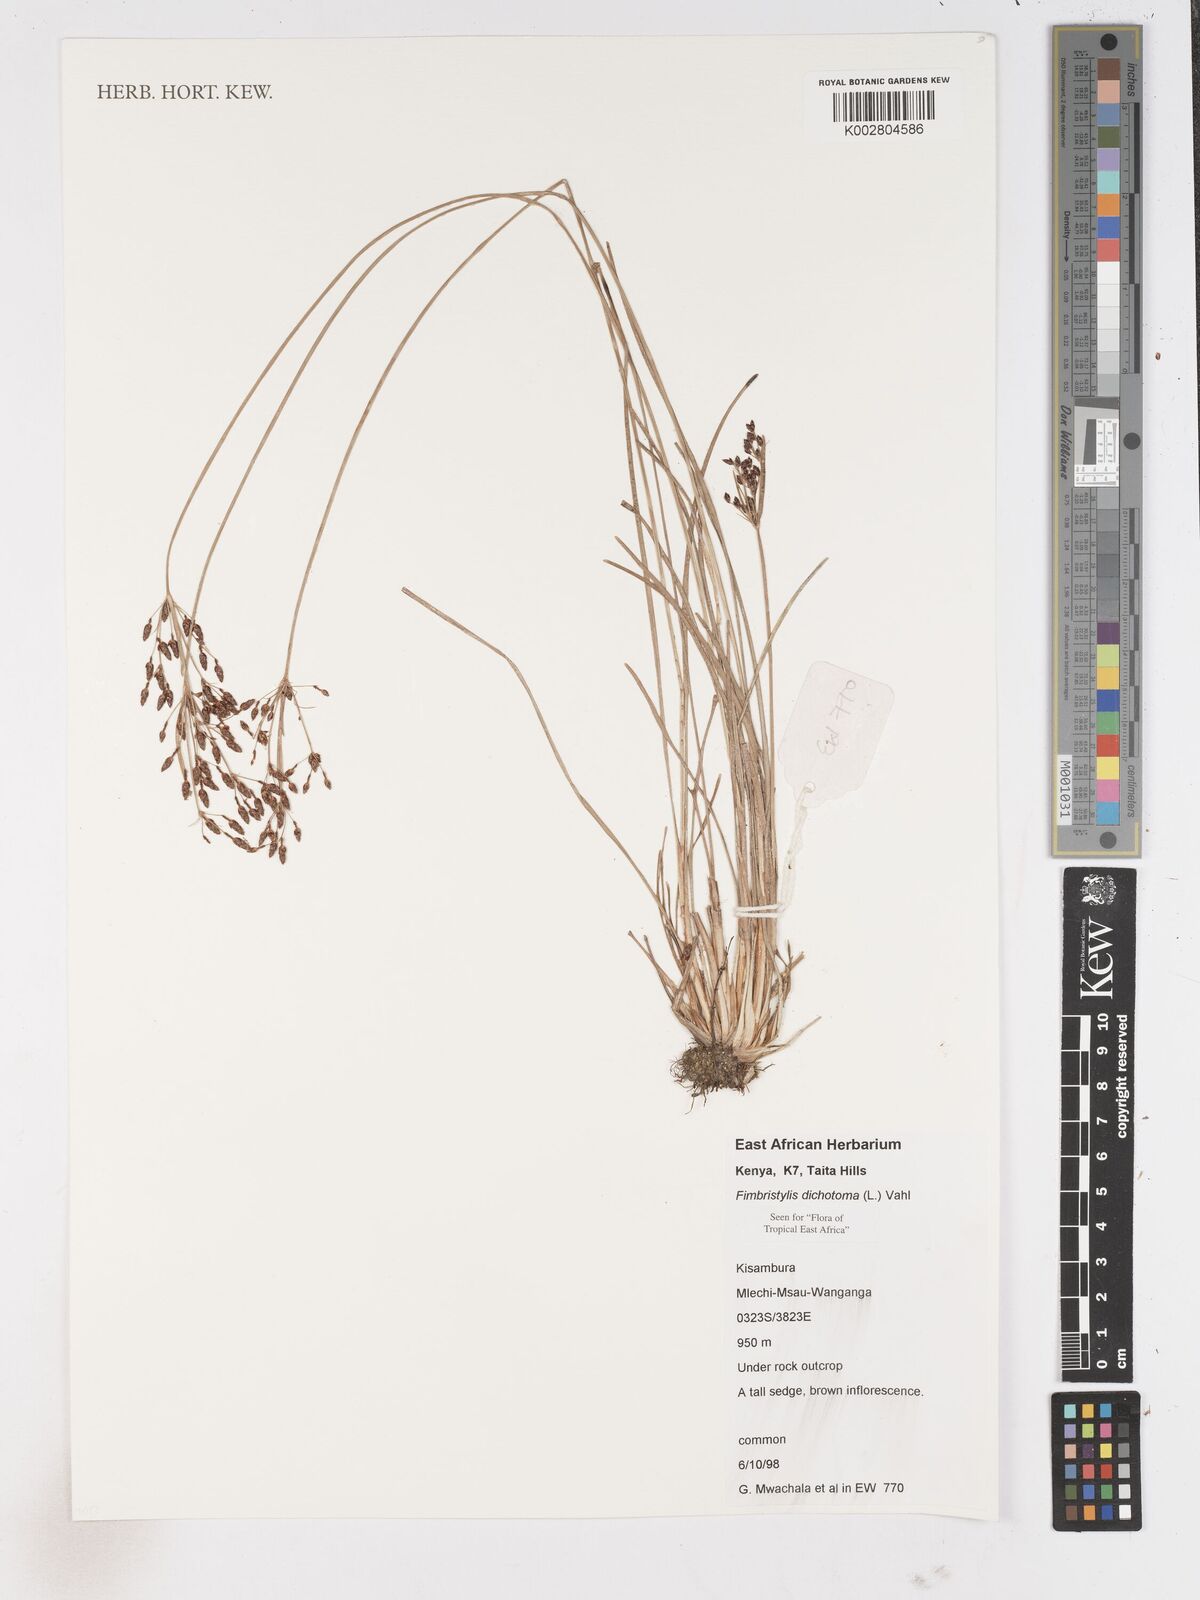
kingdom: Plantae
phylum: Tracheophyta
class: Liliopsida
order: Poales
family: Cyperaceae
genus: Fimbristylis
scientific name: Fimbristylis dichotoma
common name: Forked fimbry
